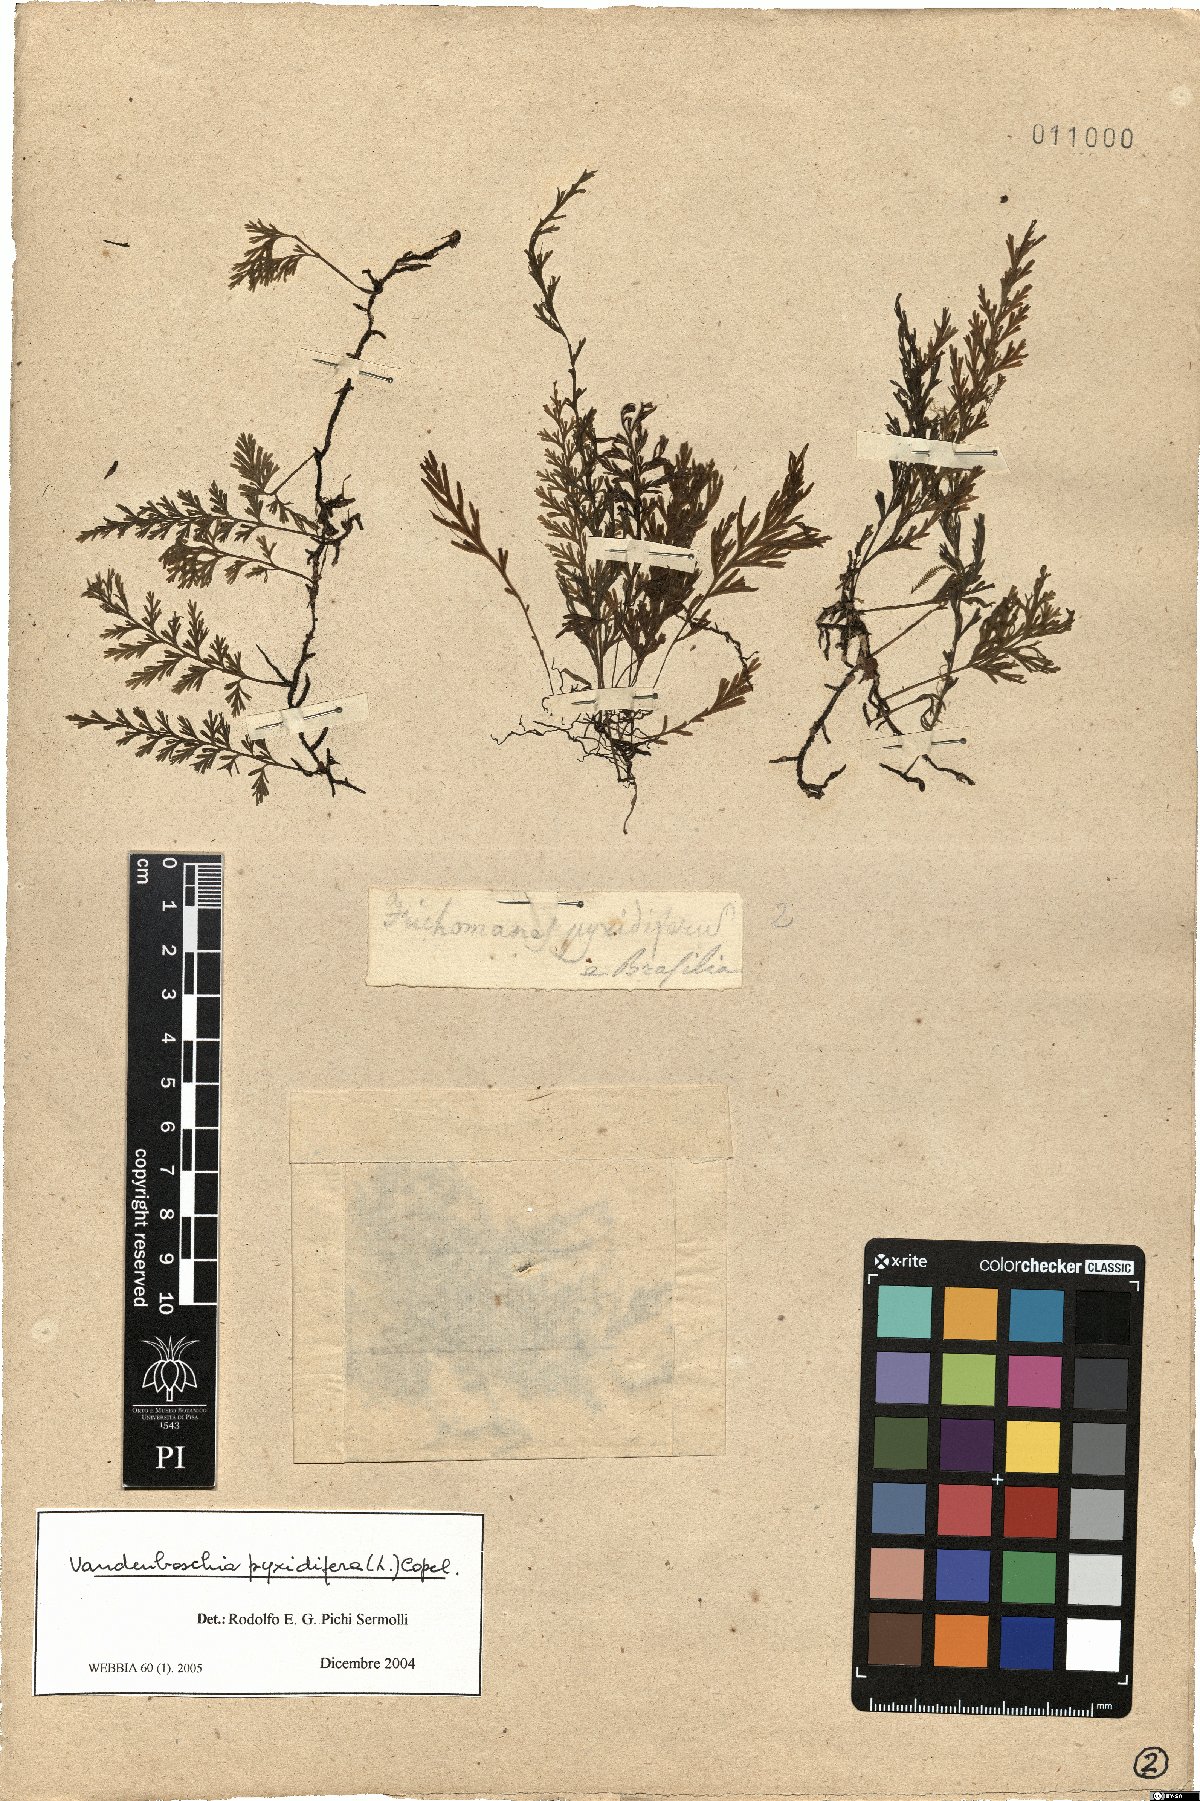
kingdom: Plantae
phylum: Tracheophyta
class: Polypodiopsida
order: Hymenophyllales
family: Hymenophyllaceae
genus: Polyphlebium
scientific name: Polyphlebium pyxidiferum
